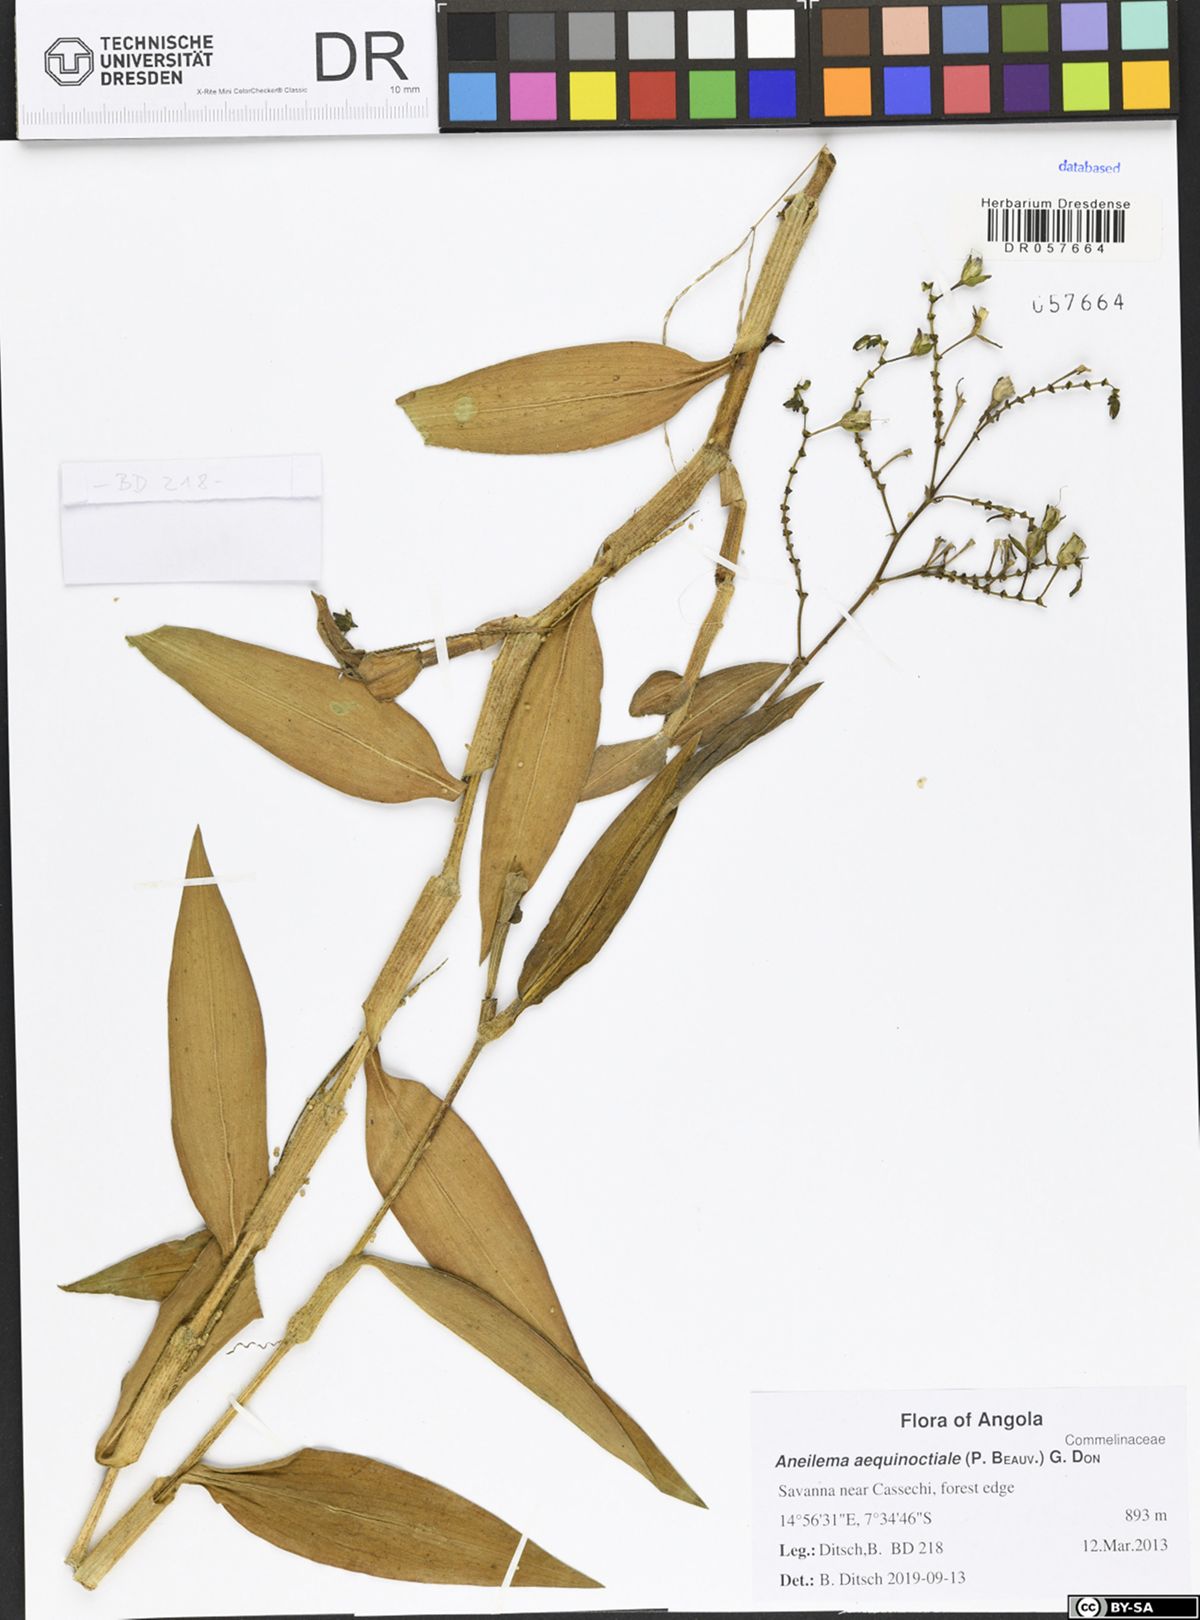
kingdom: Plantae
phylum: Tracheophyta
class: Liliopsida
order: Commelinales
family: Commelinaceae
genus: Aneilema
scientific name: Aneilema aequinoctiale
